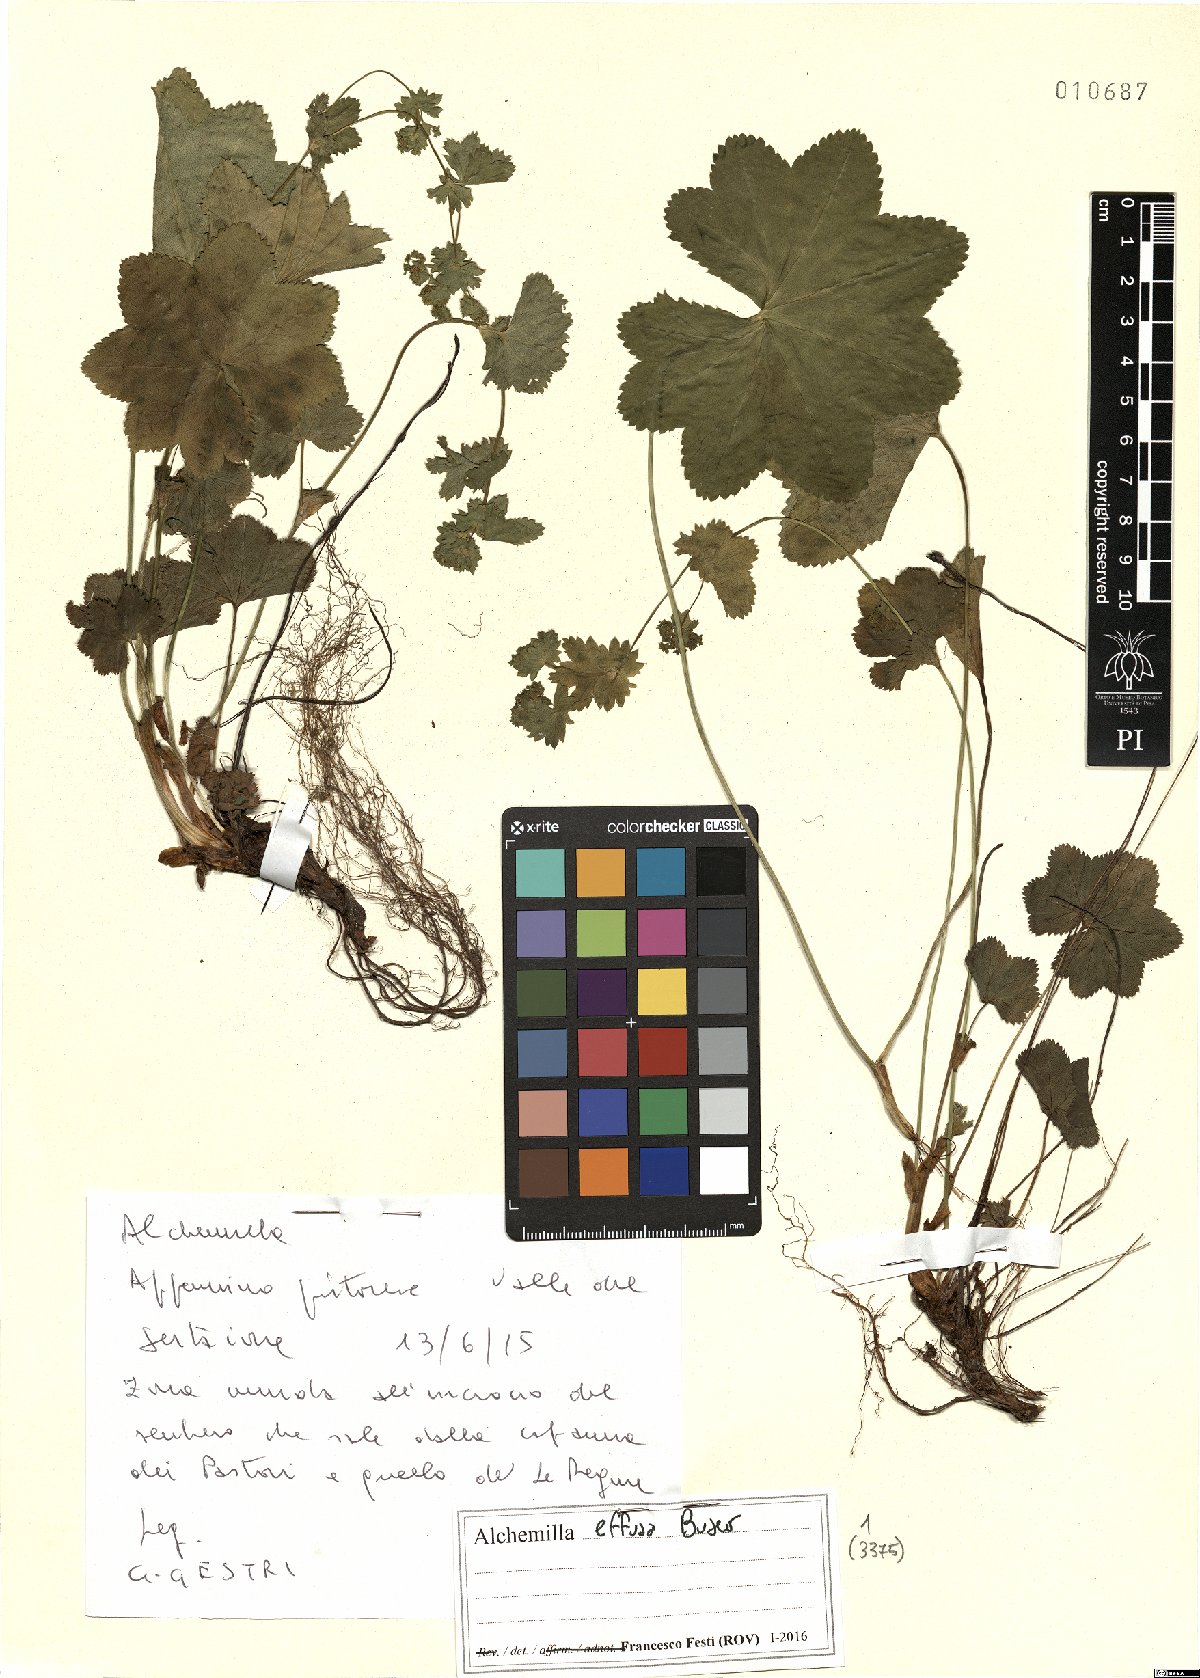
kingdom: Plantae
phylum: Tracheophyta
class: Magnoliopsida
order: Rosales
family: Rosaceae
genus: Alchemilla
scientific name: Alchemilla effusa
